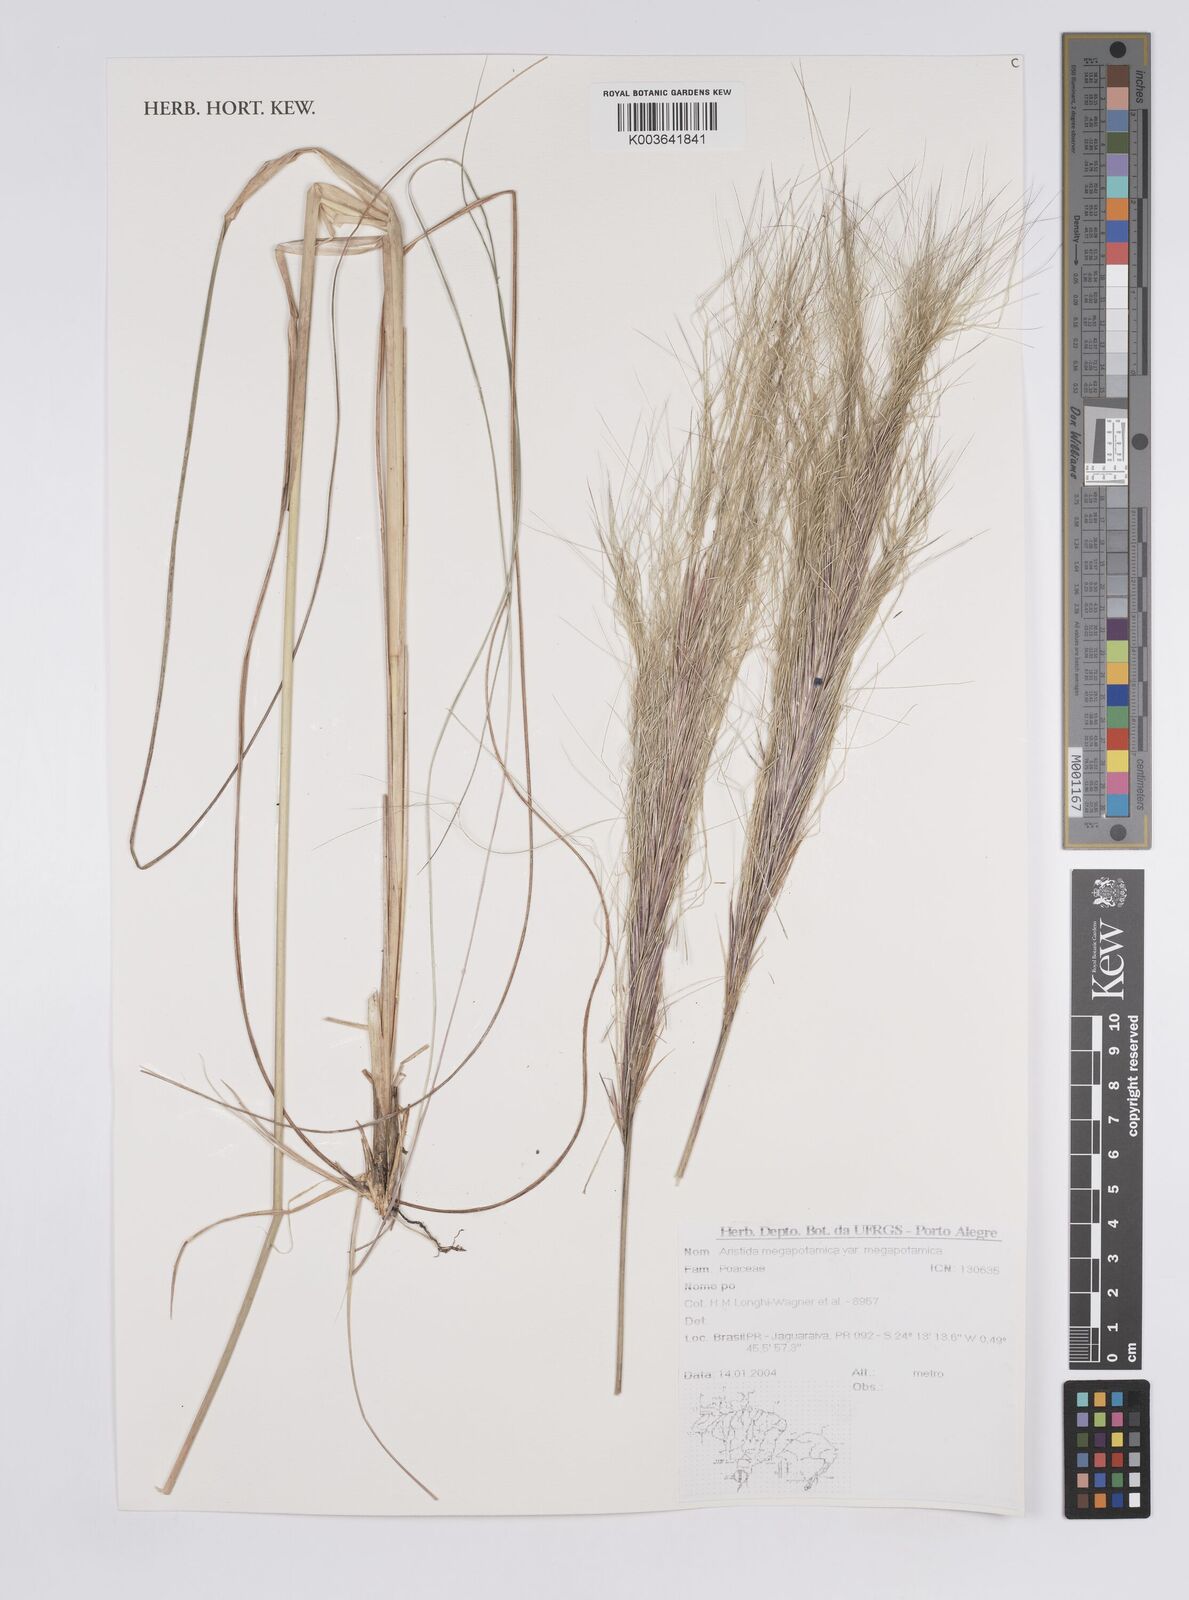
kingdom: Plantae
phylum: Tracheophyta
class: Liliopsida
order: Poales
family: Poaceae
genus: Aristida
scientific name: Aristida megapotamica
